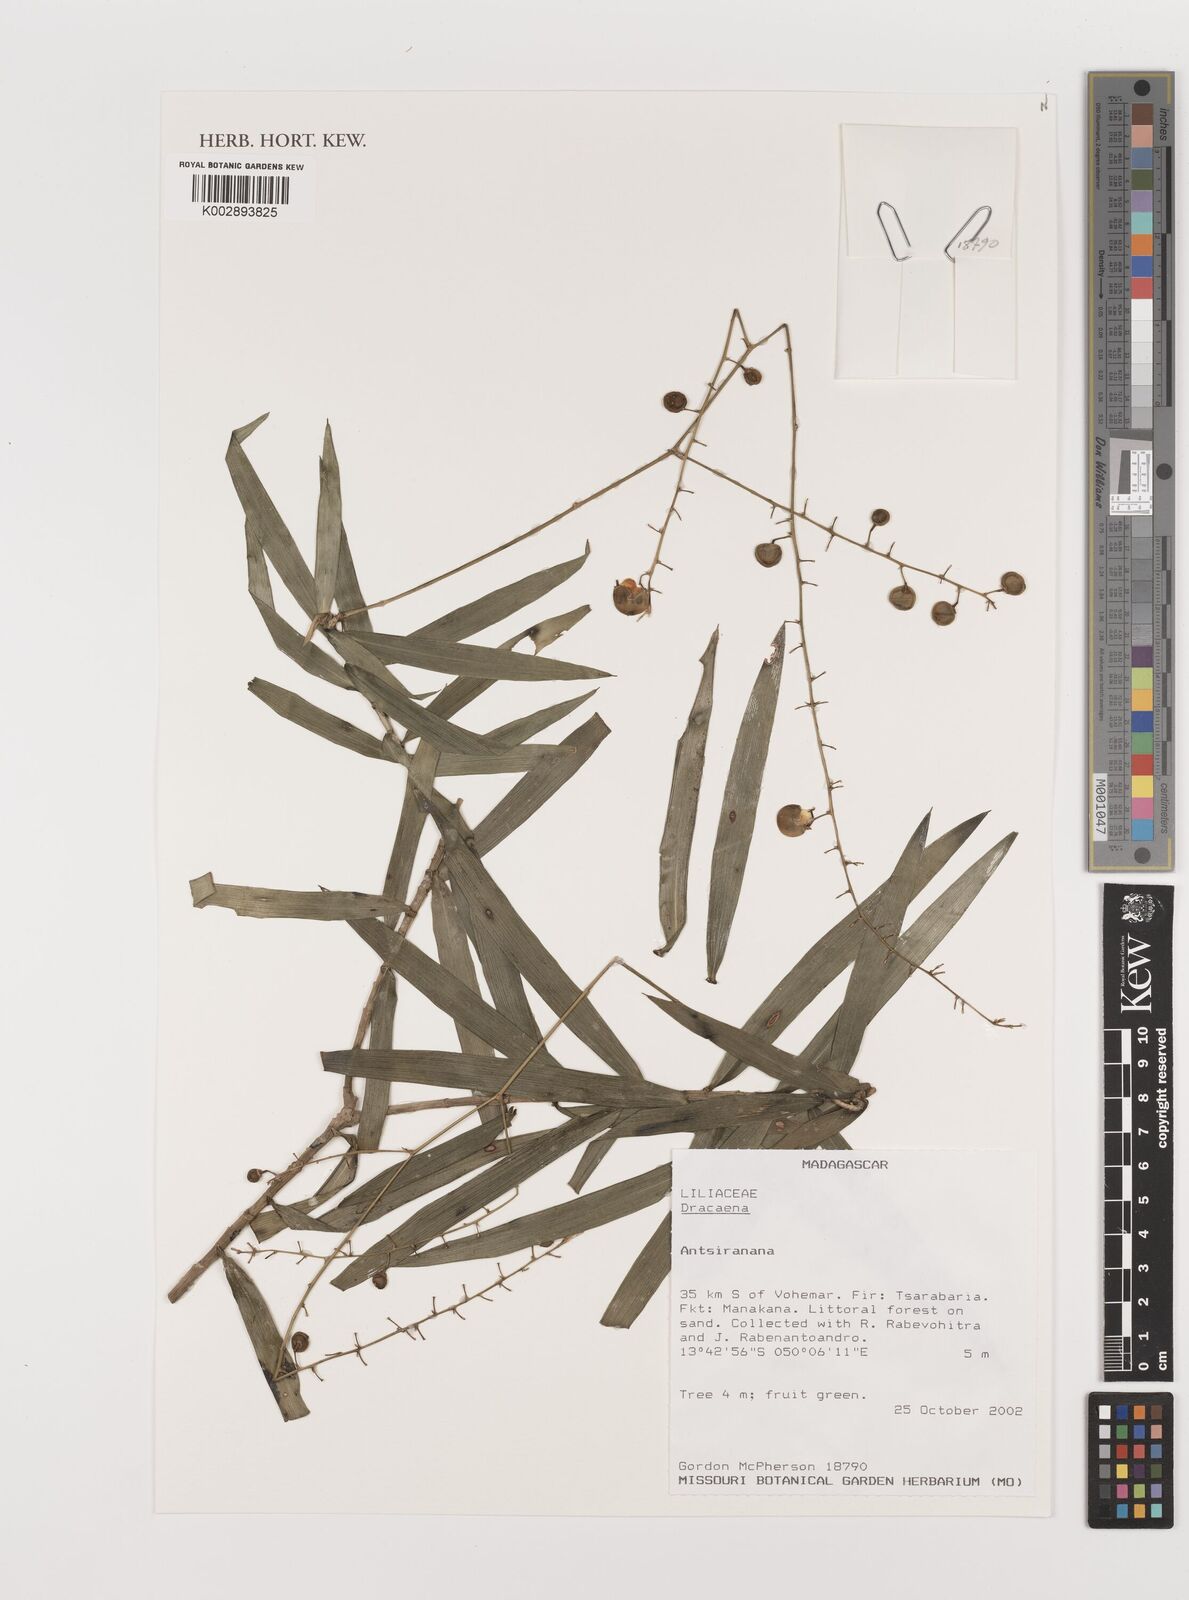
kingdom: Plantae
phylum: Tracheophyta
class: Liliopsida
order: Asparagales
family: Asparagaceae
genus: Dracaena
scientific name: Dracaena
